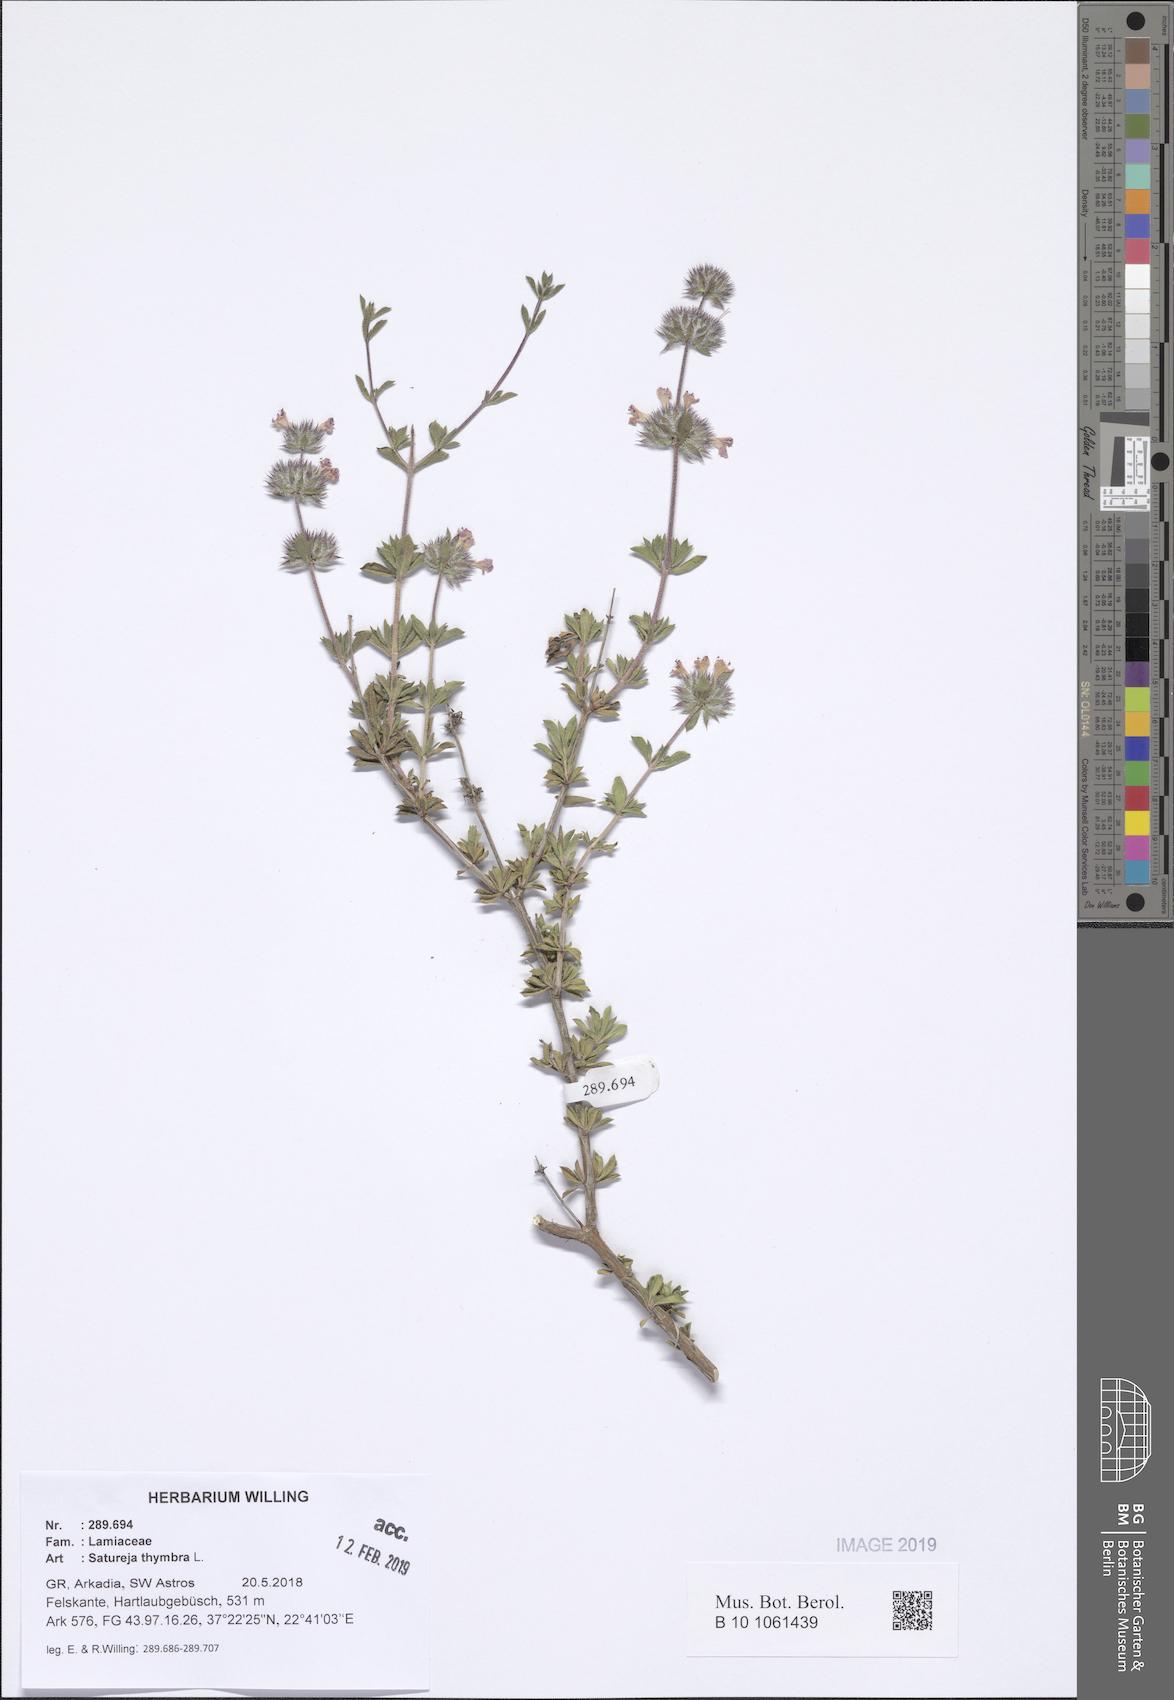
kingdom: Plantae
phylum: Tracheophyta
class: Magnoliopsida
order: Lamiales
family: Lamiaceae
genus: Satureja
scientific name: Satureja thymbra
